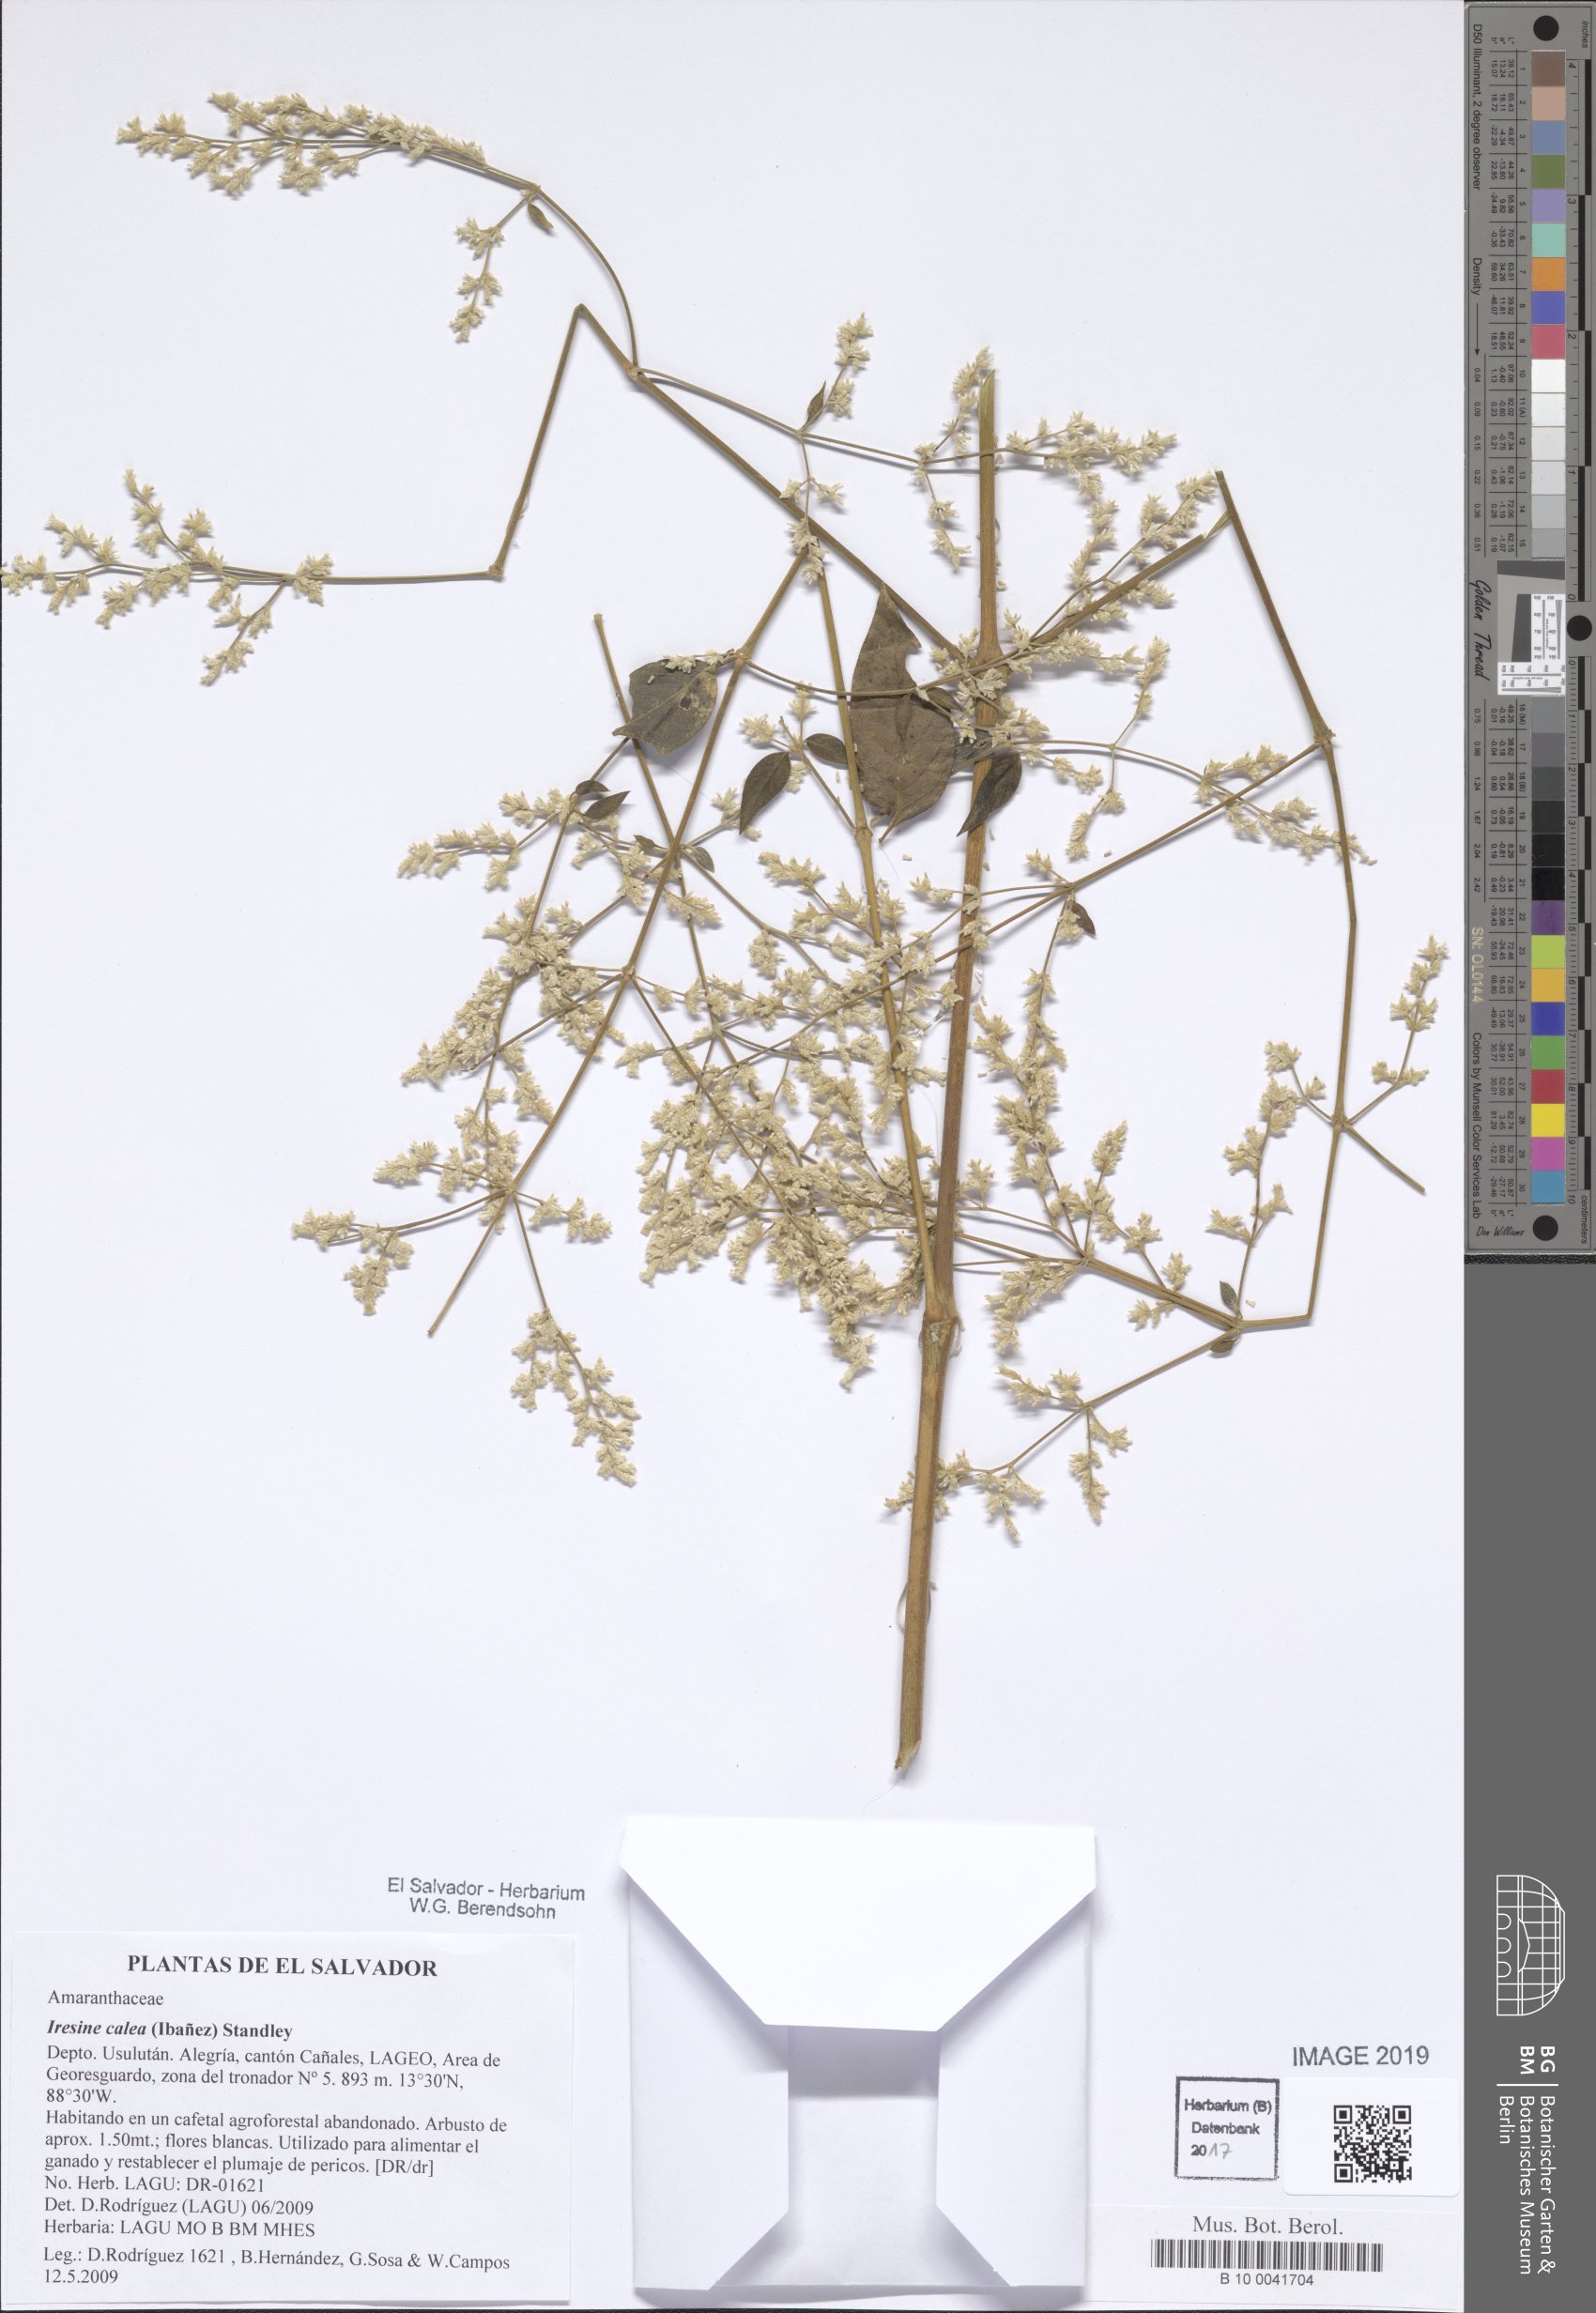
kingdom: Plantae
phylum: Tracheophyta
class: Magnoliopsida
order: Caryophyllales
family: Amaranthaceae
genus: Iresine
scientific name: Iresine latifolia
